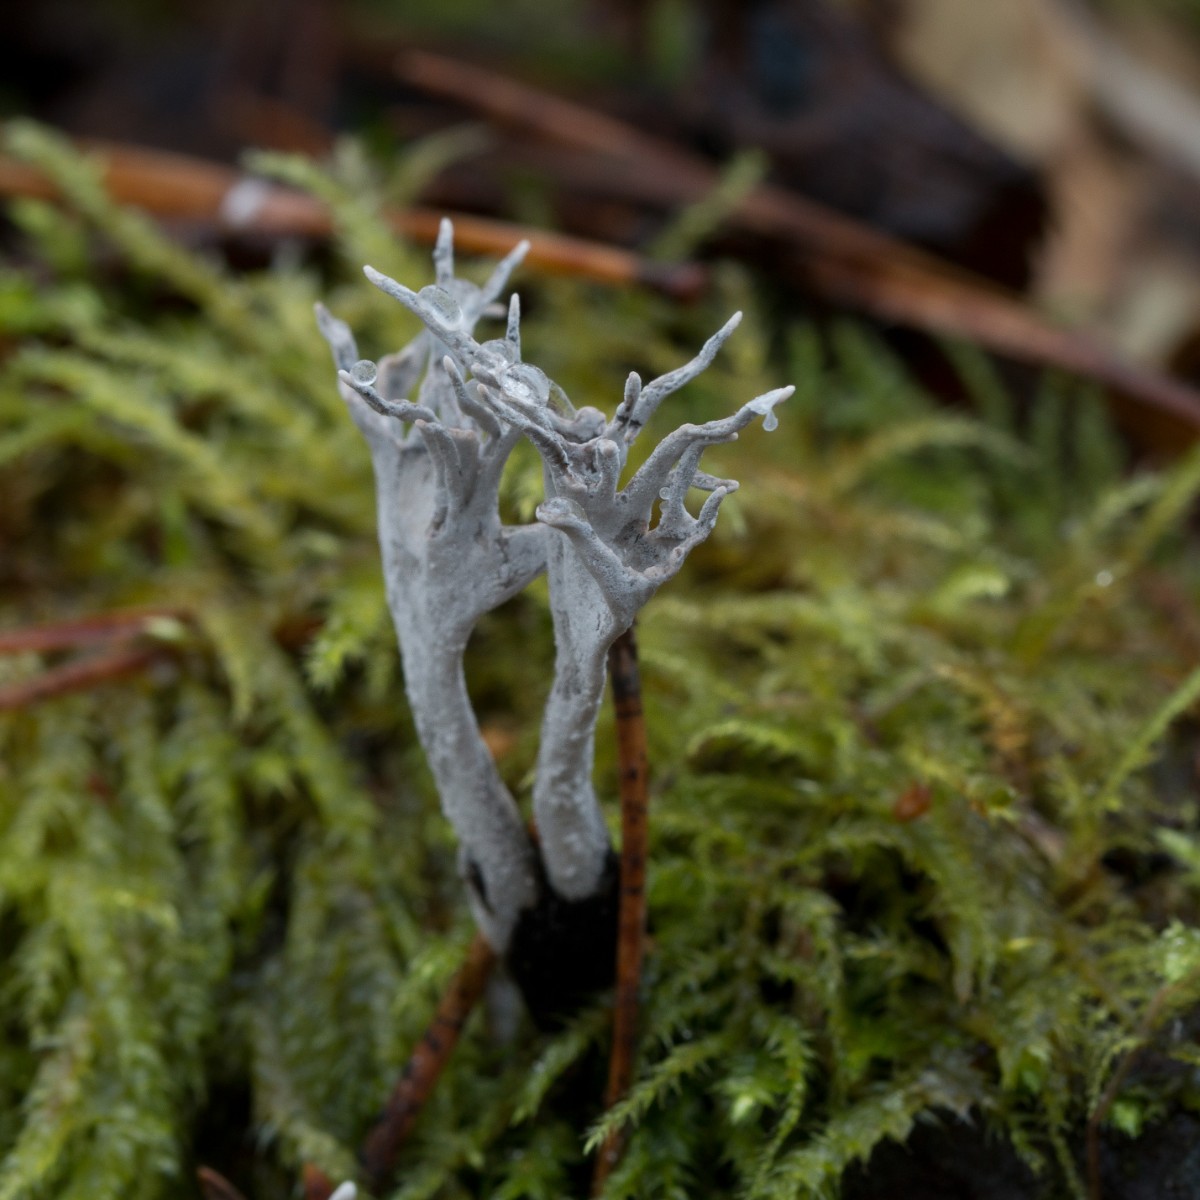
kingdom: Fungi
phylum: Ascomycota
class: Sordariomycetes
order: Xylariales
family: Xylariaceae
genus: Xylaria
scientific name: Xylaria hypoxylon
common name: grenet stødsvamp
